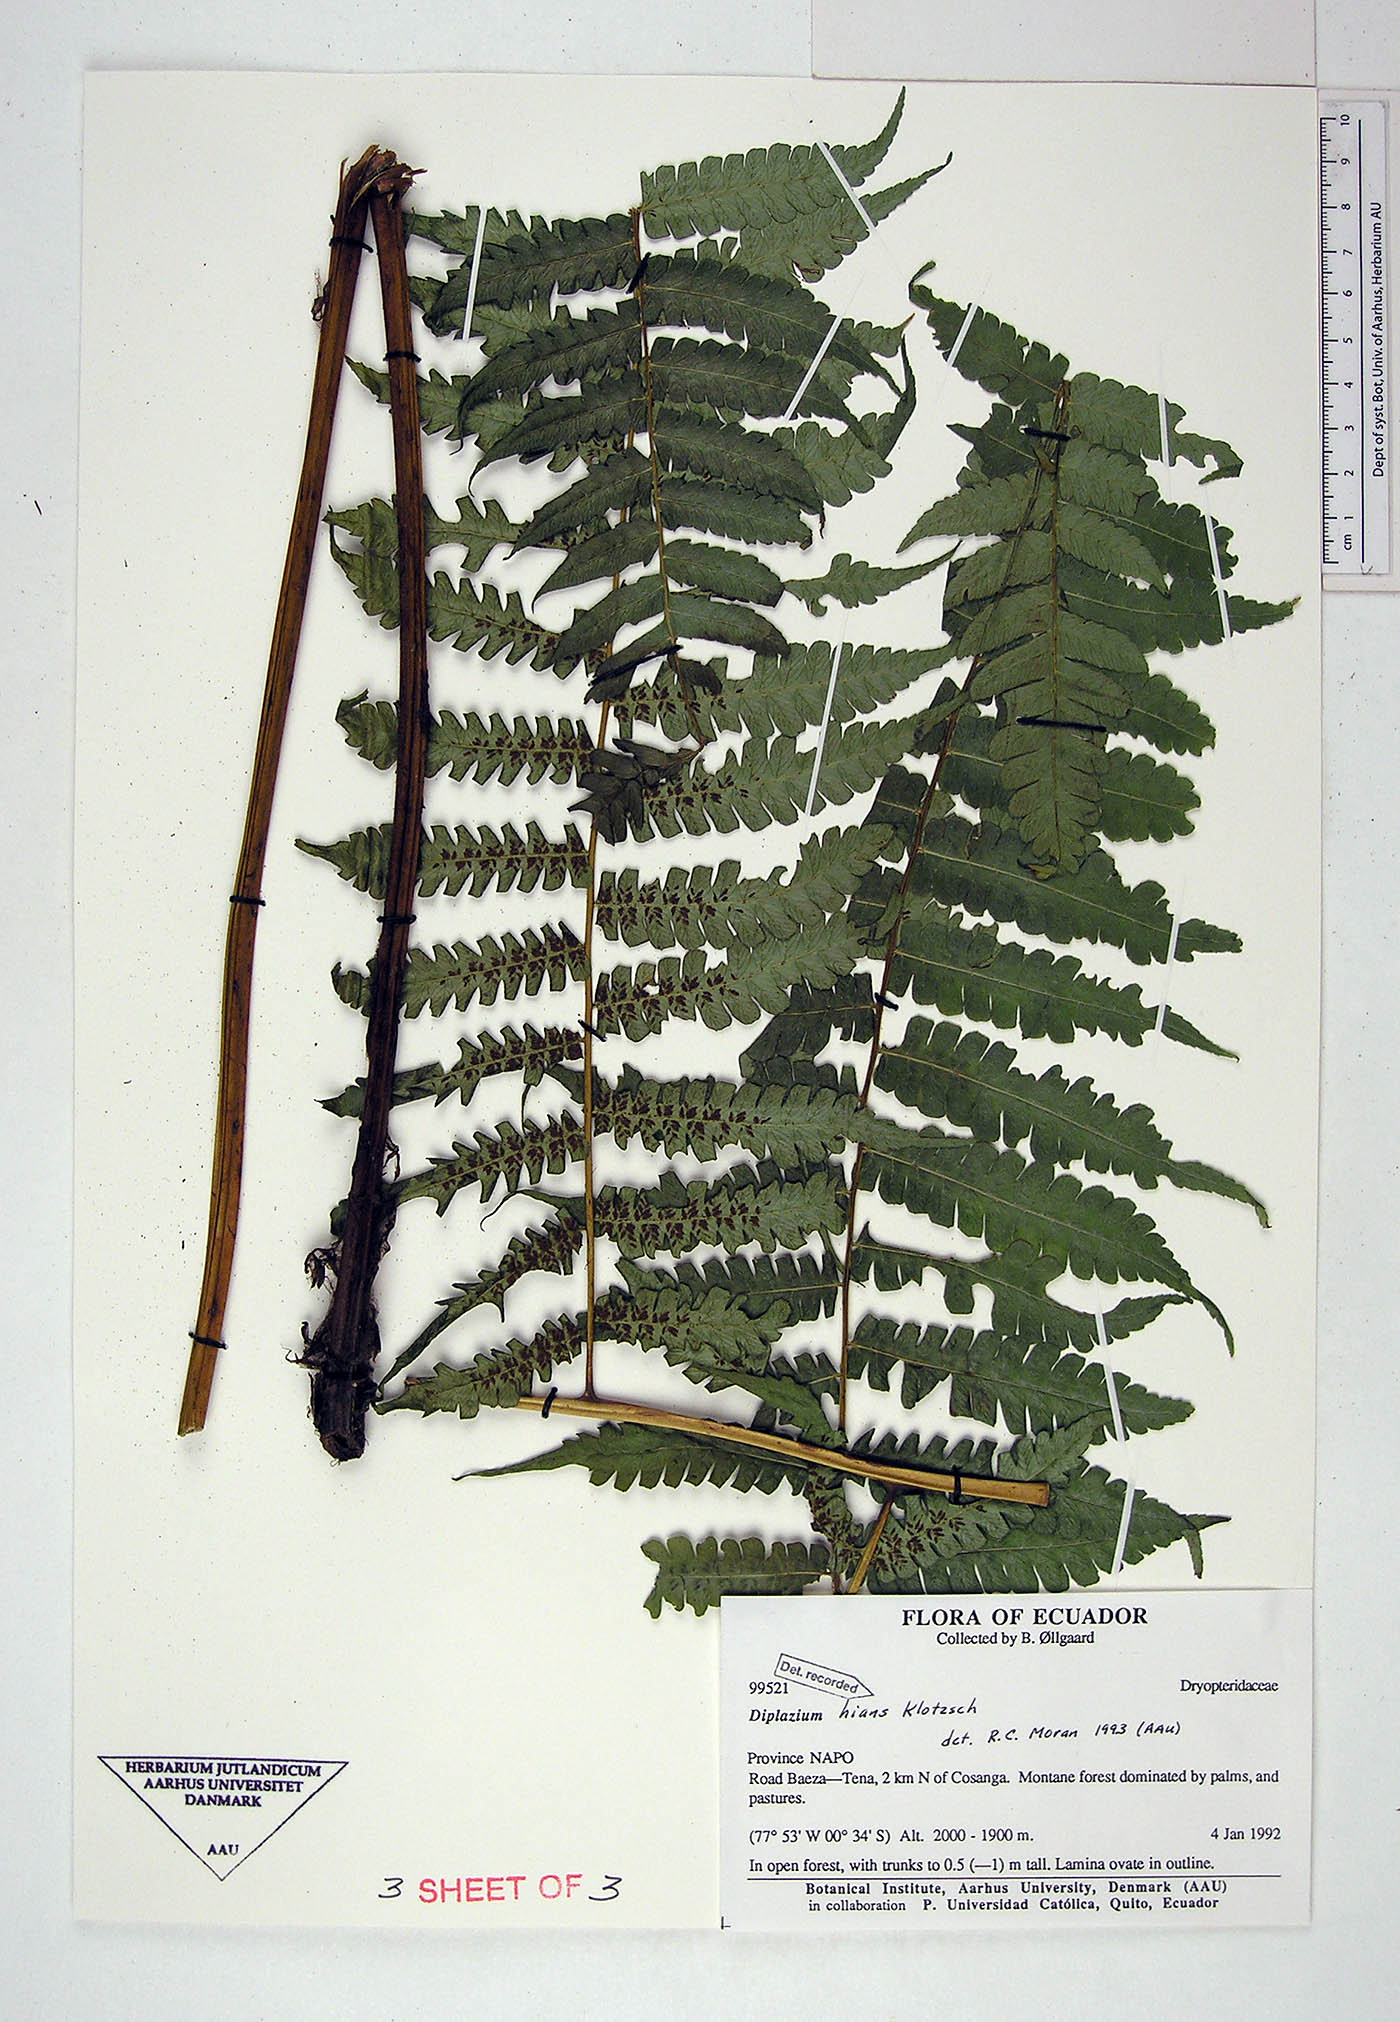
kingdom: Plantae
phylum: Tracheophyta
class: Polypodiopsida
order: Polypodiales
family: Athyriaceae
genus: Diplazium
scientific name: Diplazium hians
